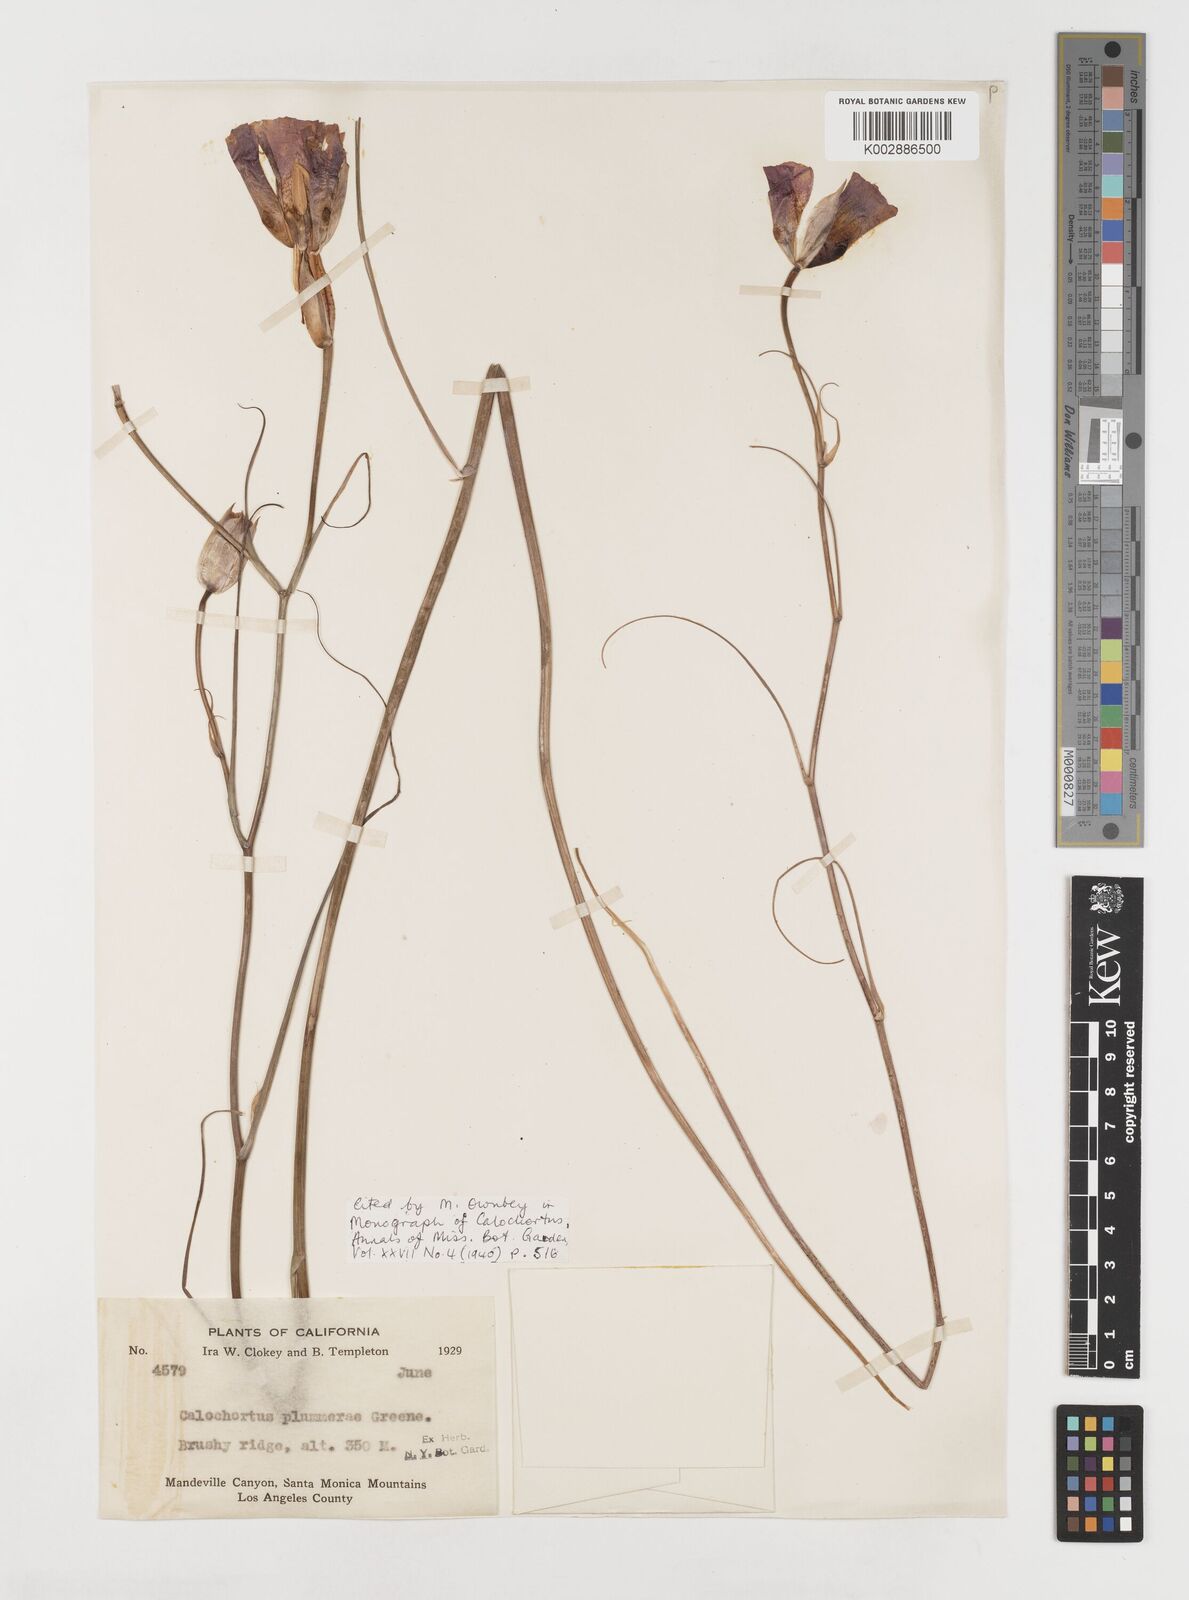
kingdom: Plantae
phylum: Tracheophyta
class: Liliopsida
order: Liliales
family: Liliaceae
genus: Calochortus
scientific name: Calochortus plummerae
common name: Plummer's mariposa-lily
